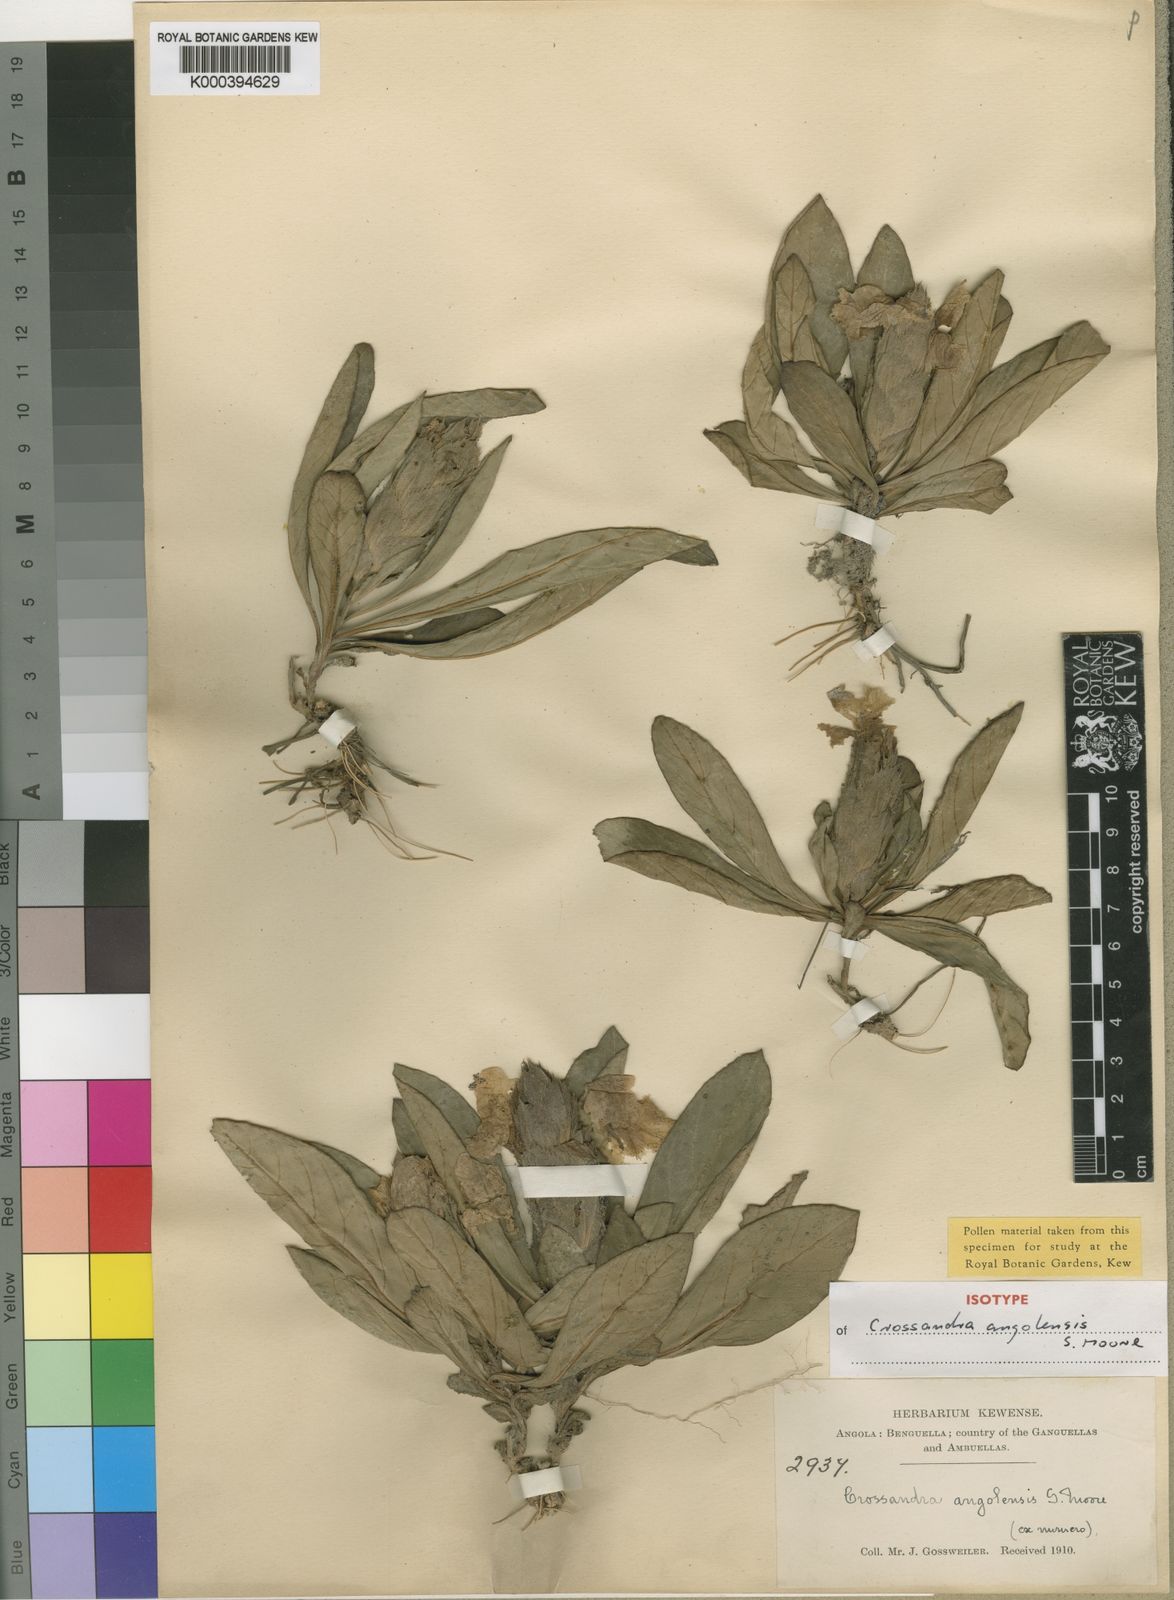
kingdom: Plantae
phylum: Tracheophyta
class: Magnoliopsida
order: Lamiales
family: Acanthaceae
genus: Crossandra
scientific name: Crossandra angolensis
